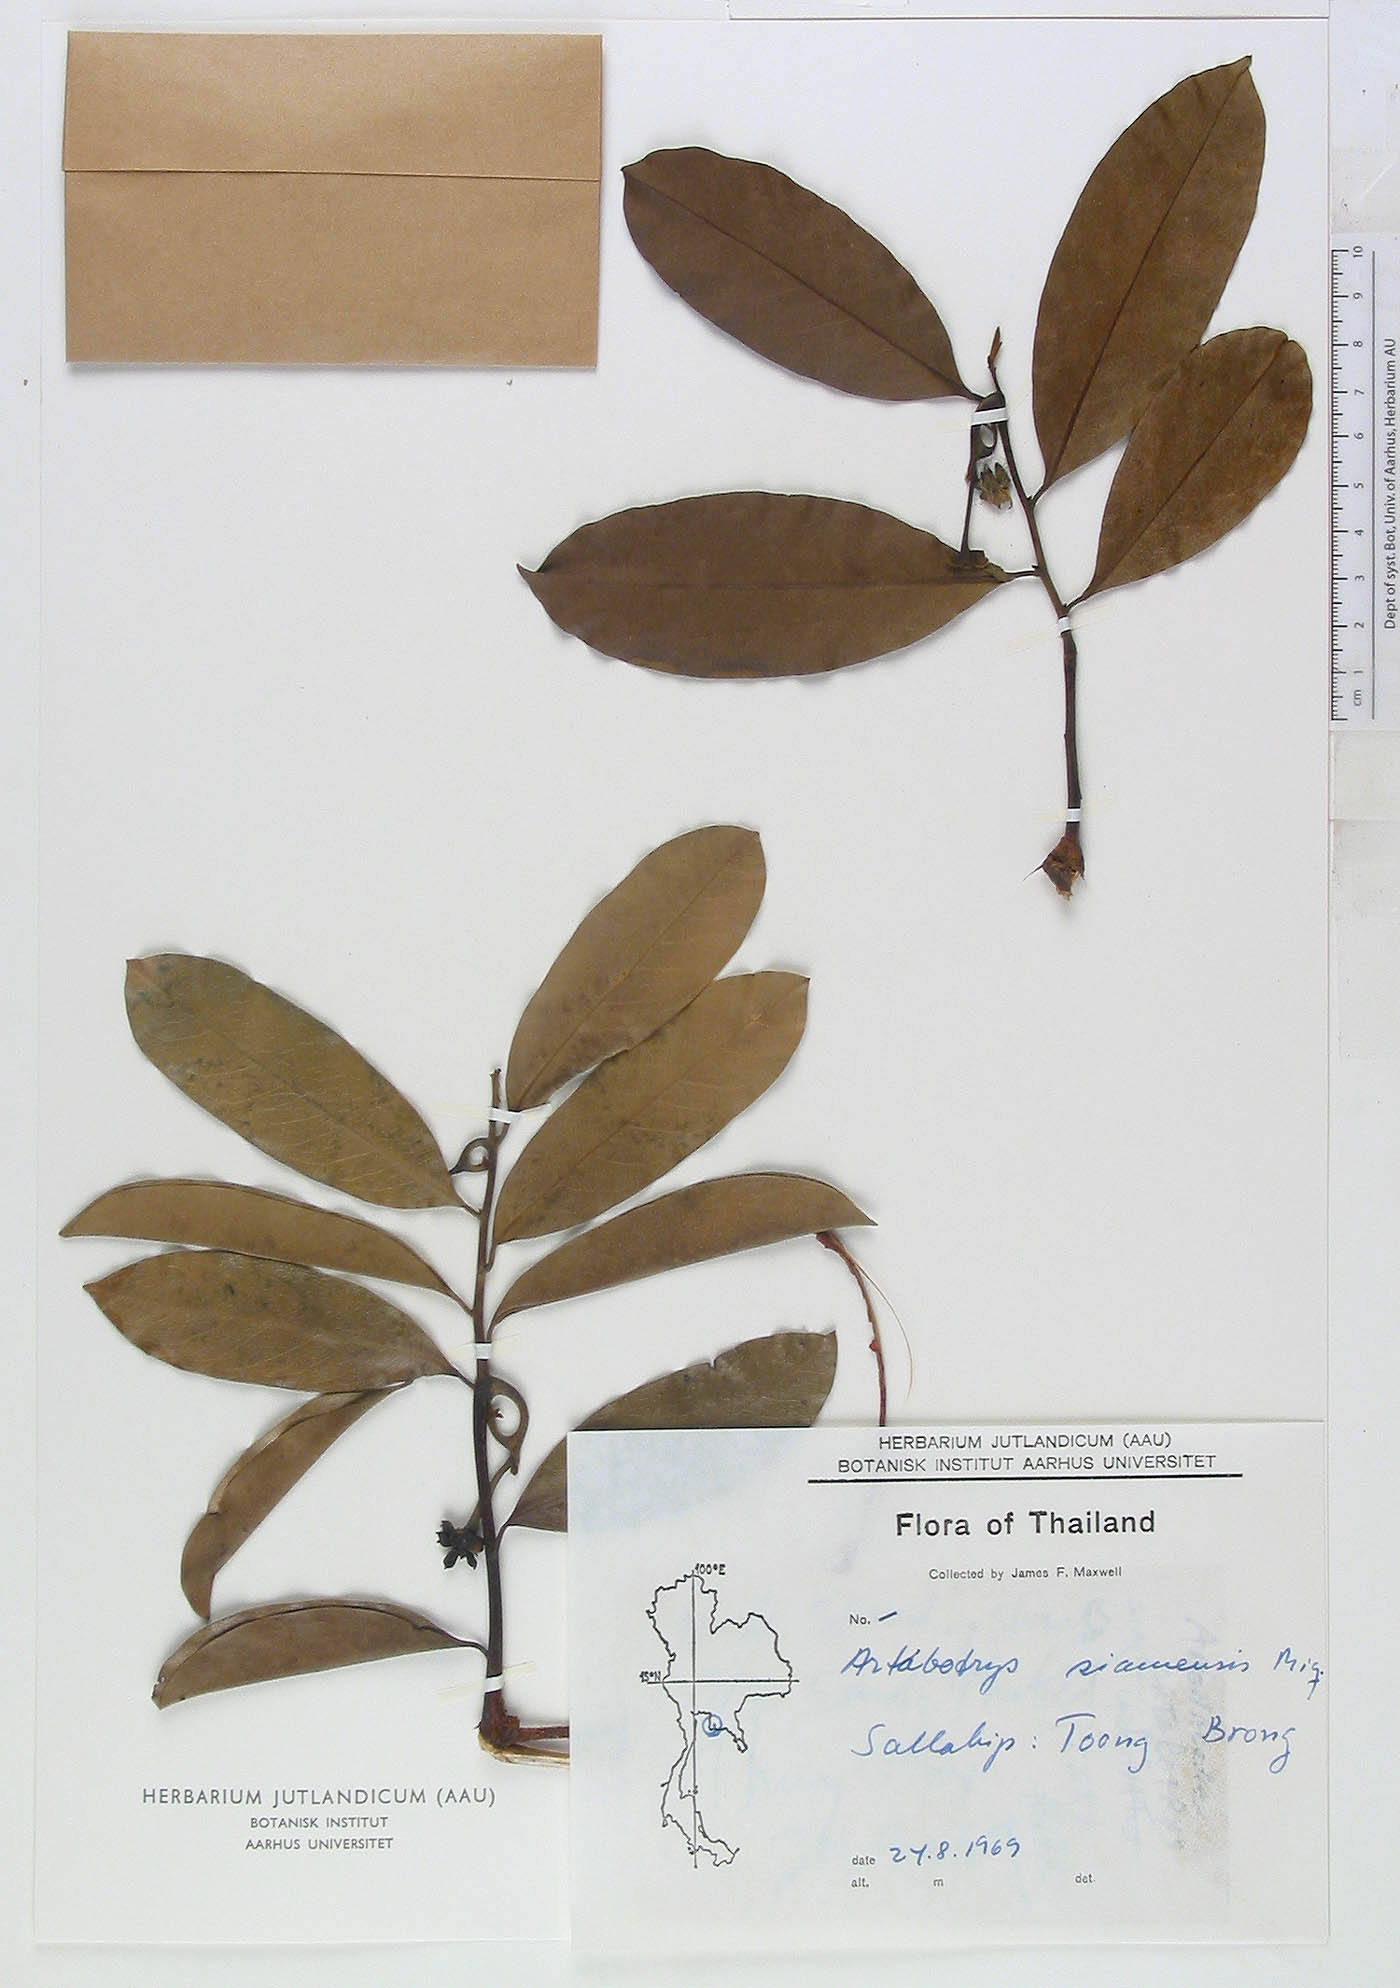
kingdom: Plantae
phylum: Tracheophyta
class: Magnoliopsida
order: Magnoliales
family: Annonaceae
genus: Artabotrys
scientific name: Artabotrys siamensis
